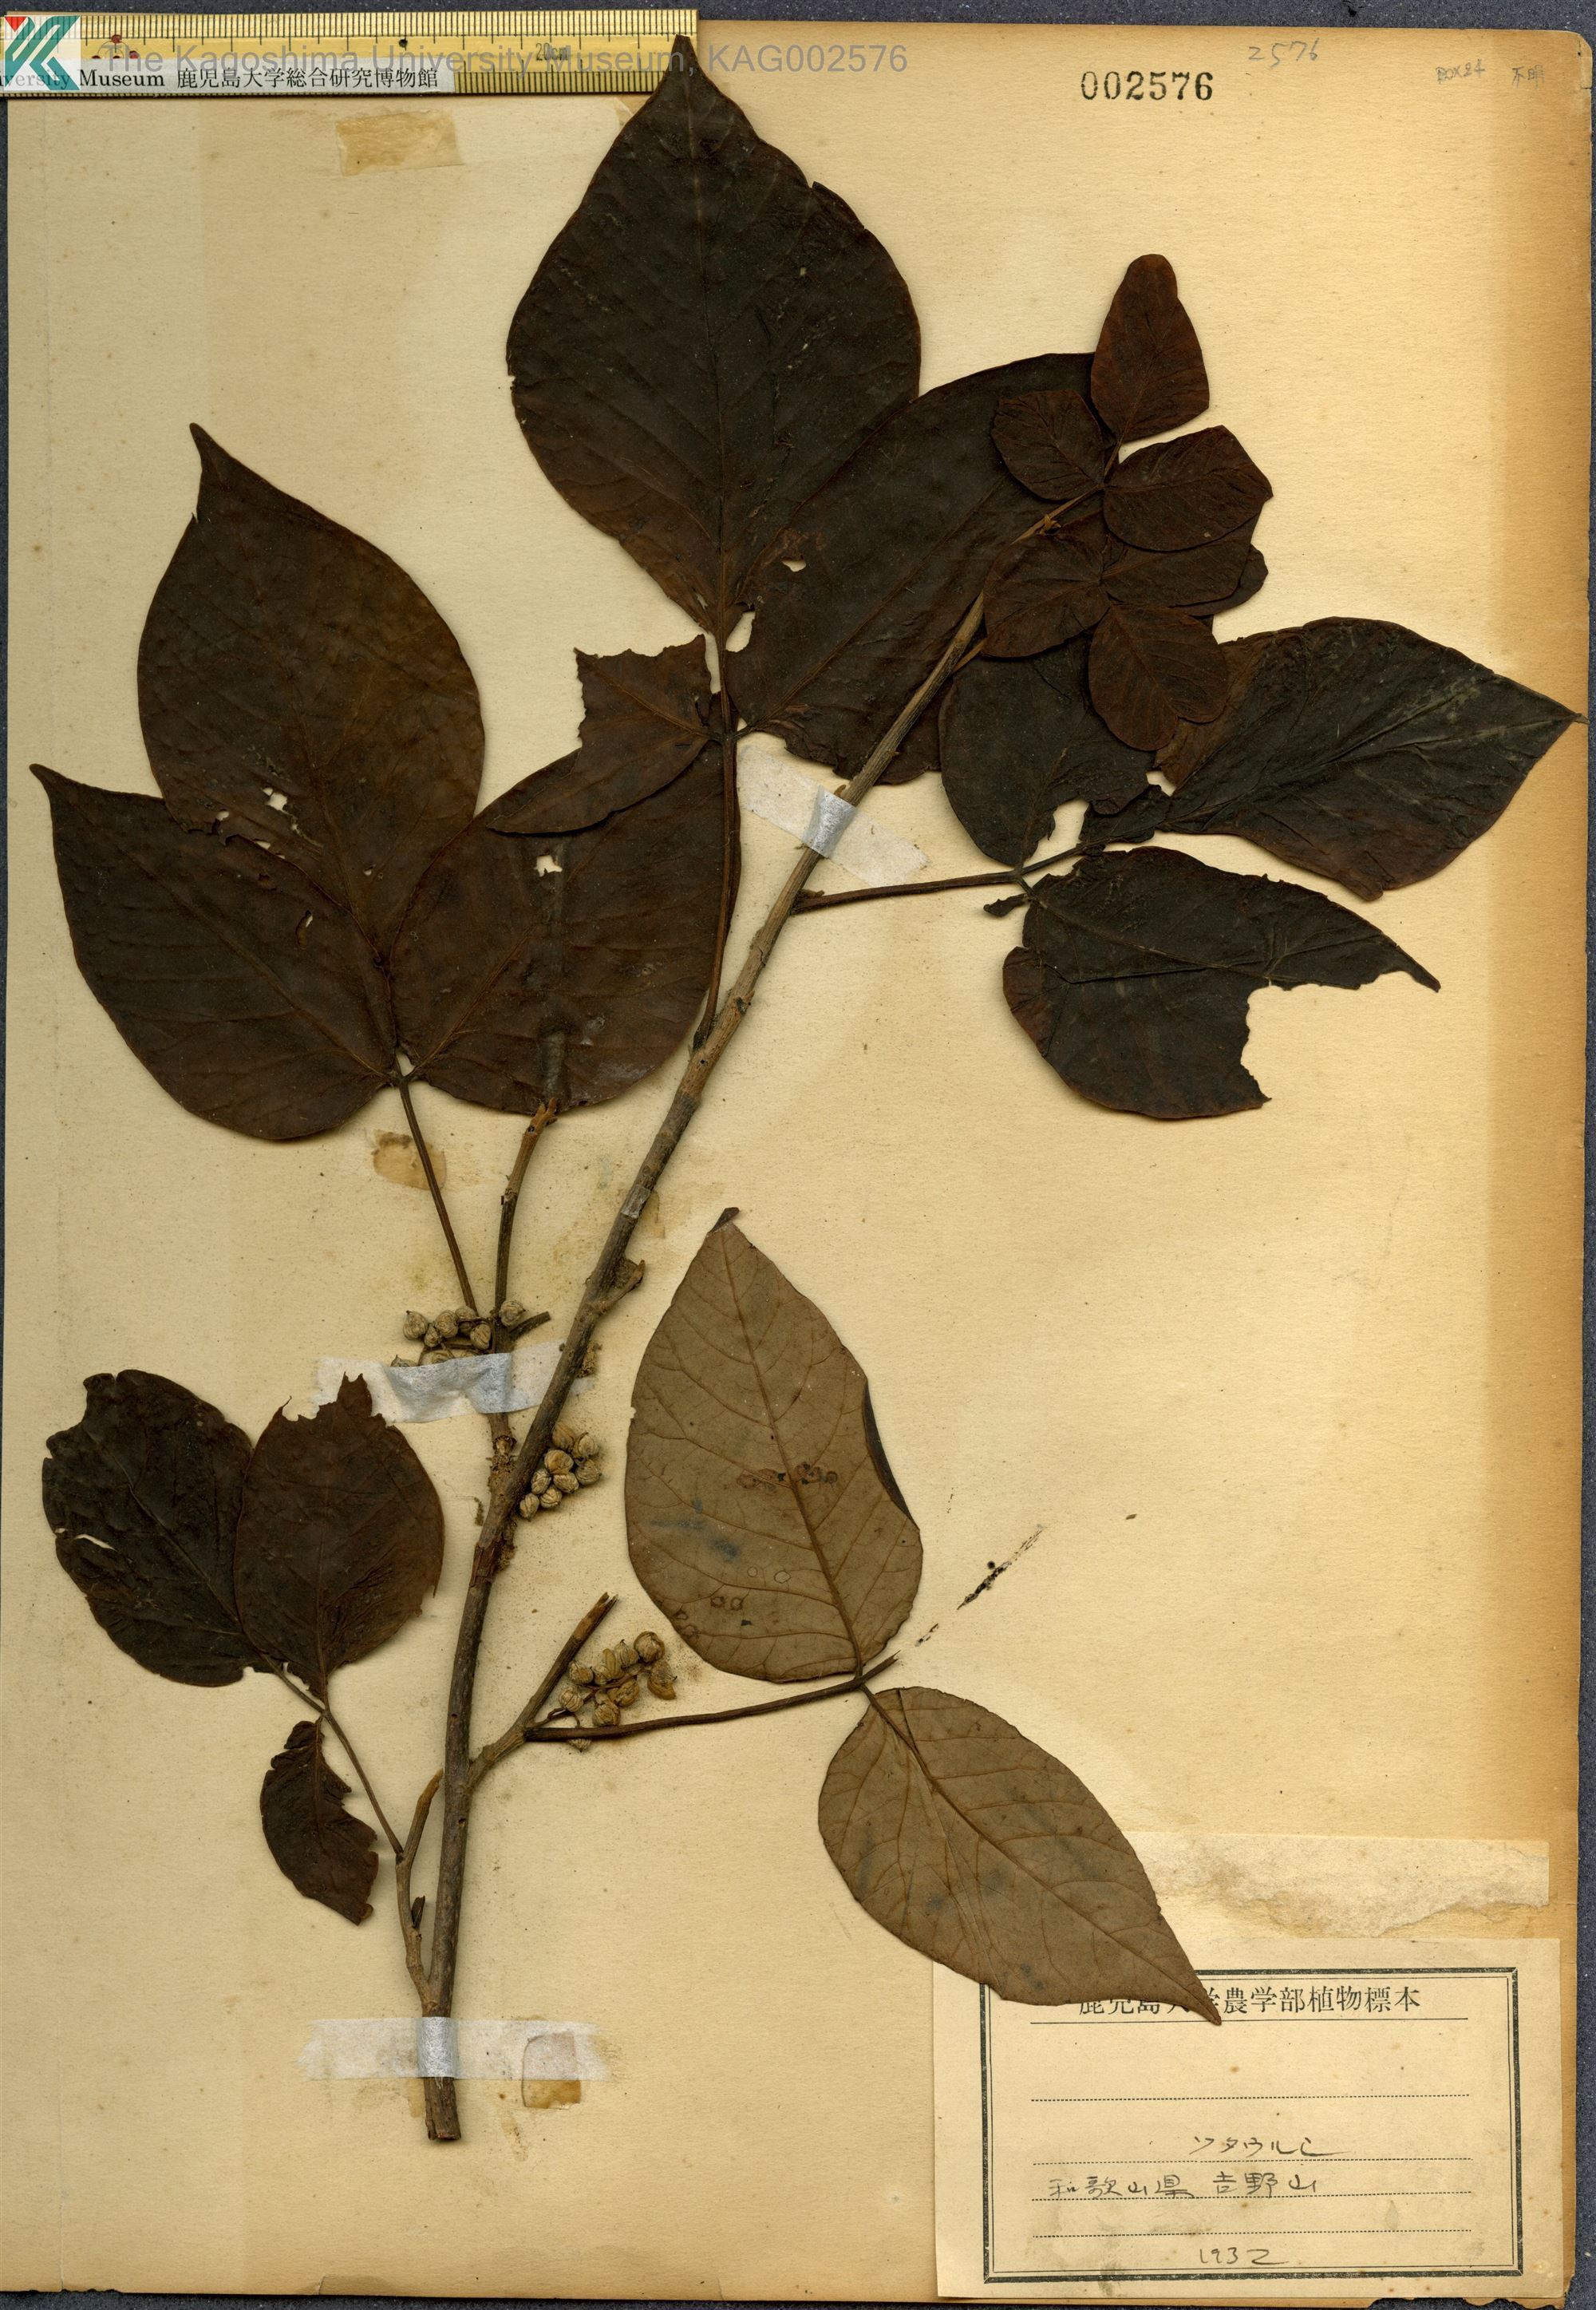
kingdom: Plantae
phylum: Tracheophyta
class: Magnoliopsida
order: Sapindales
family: Anacardiaceae
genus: Toxicodendron
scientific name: Toxicodendron orientale
